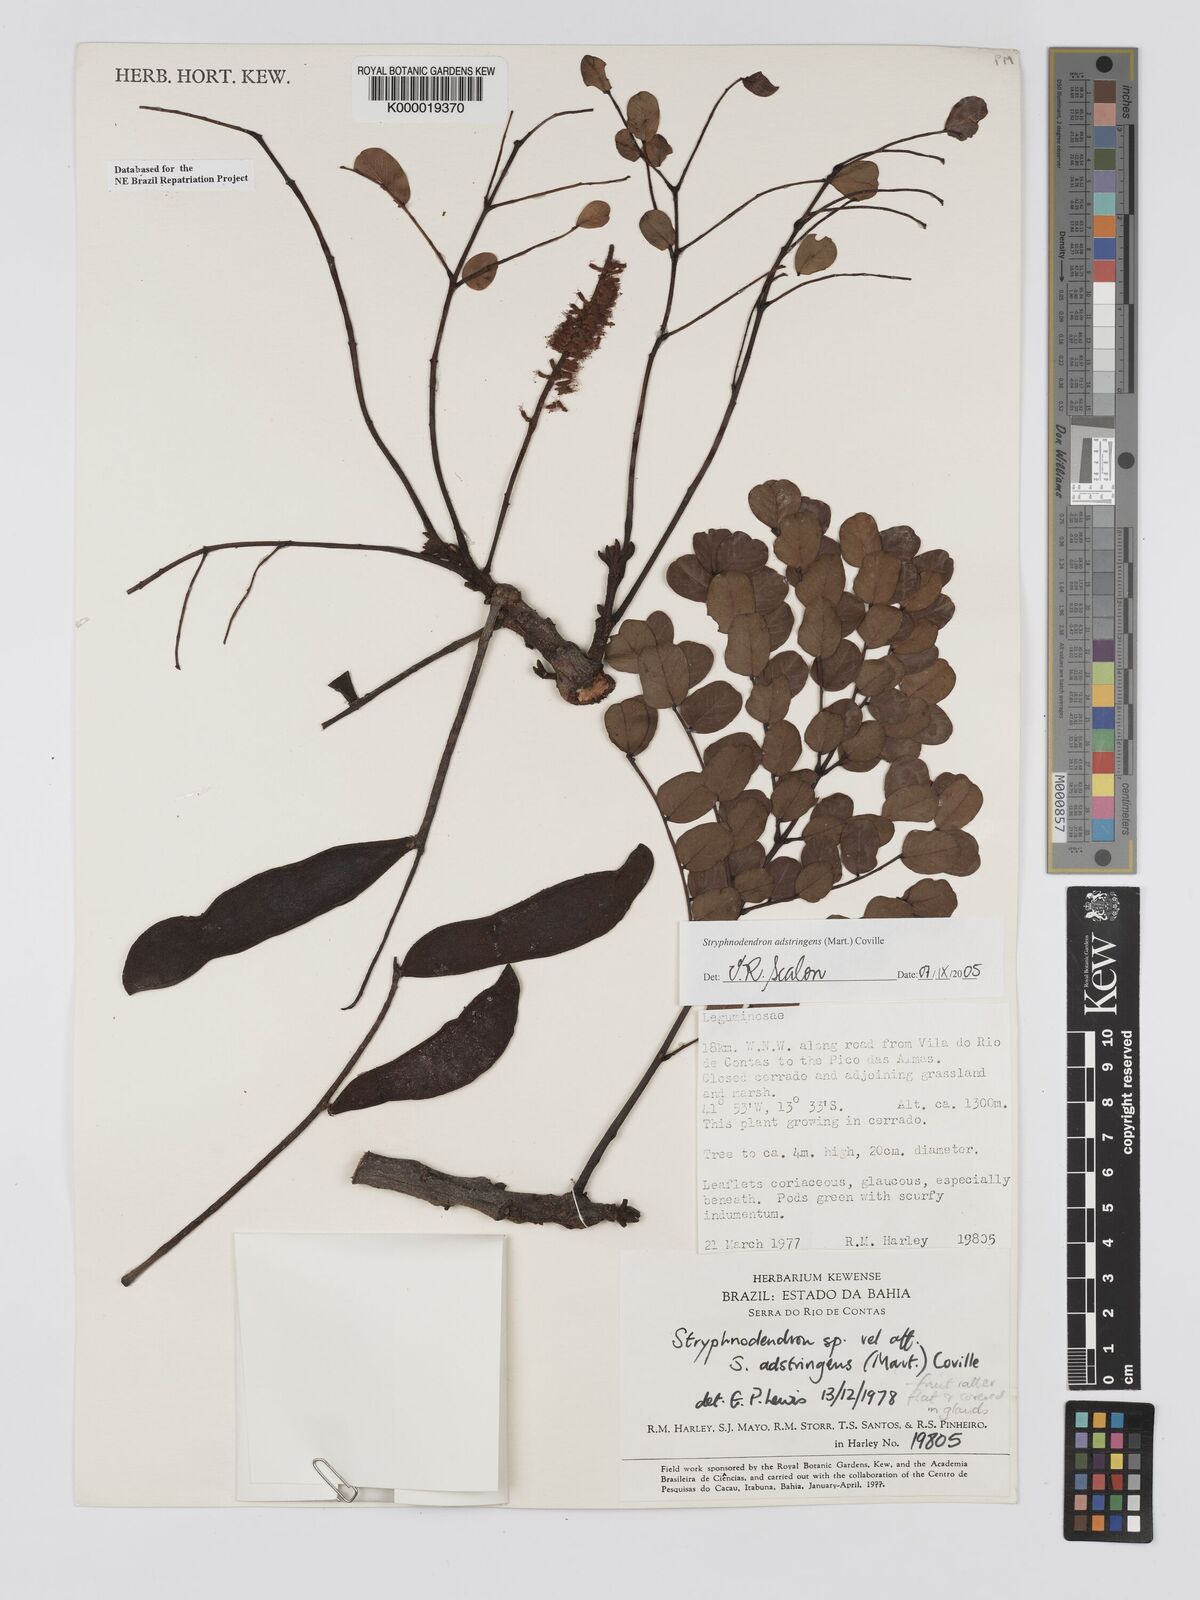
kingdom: Plantae
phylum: Tracheophyta
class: Magnoliopsida
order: Fabales
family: Fabaceae
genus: Stryphnodendron
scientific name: Stryphnodendron adstringens
